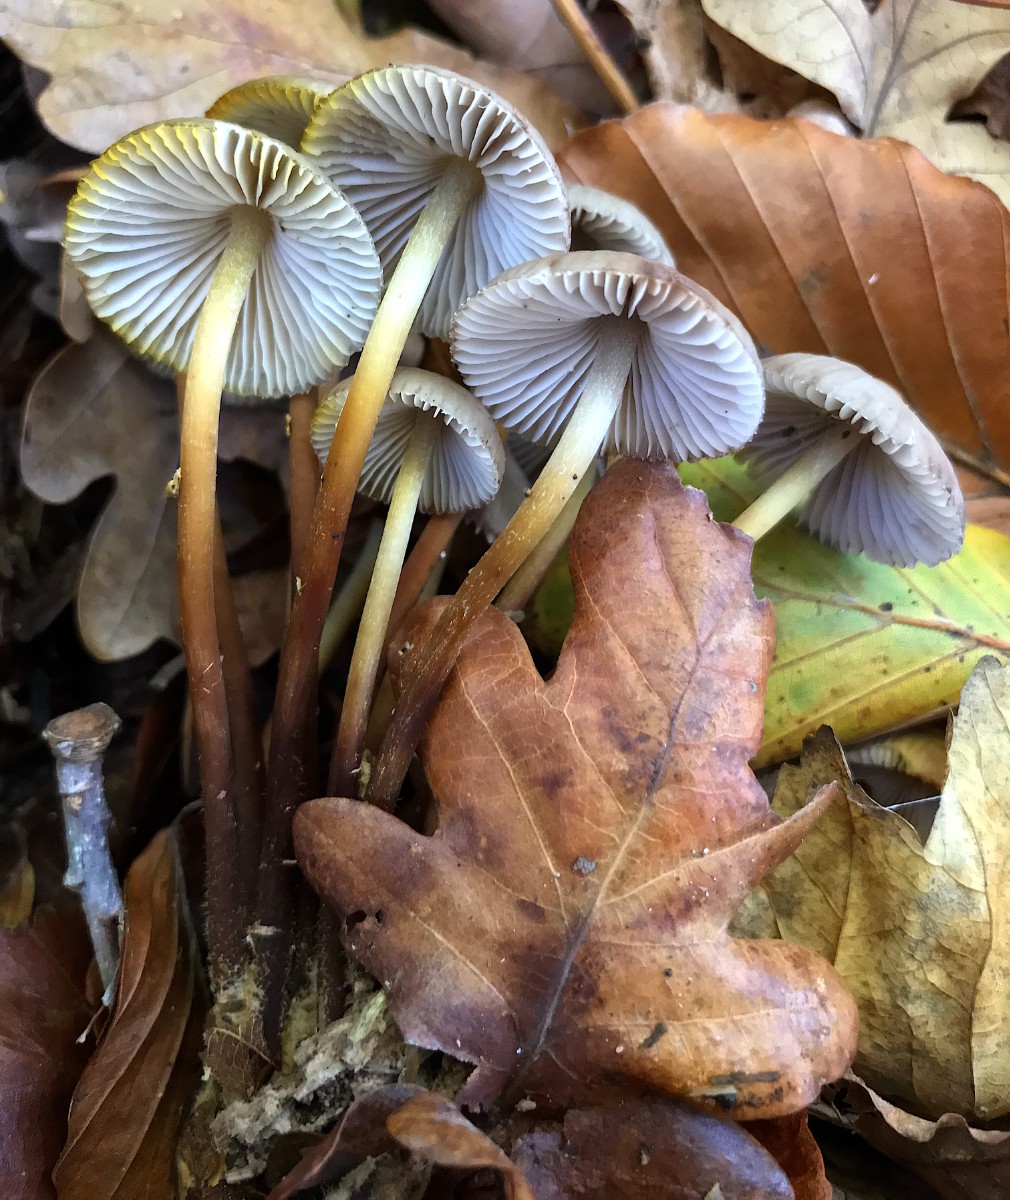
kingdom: Fungi
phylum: Basidiomycota
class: Agaricomycetes
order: Agaricales
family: Mycenaceae
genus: Mycena
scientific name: Mycena inclinata
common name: nikkende huesvamp
